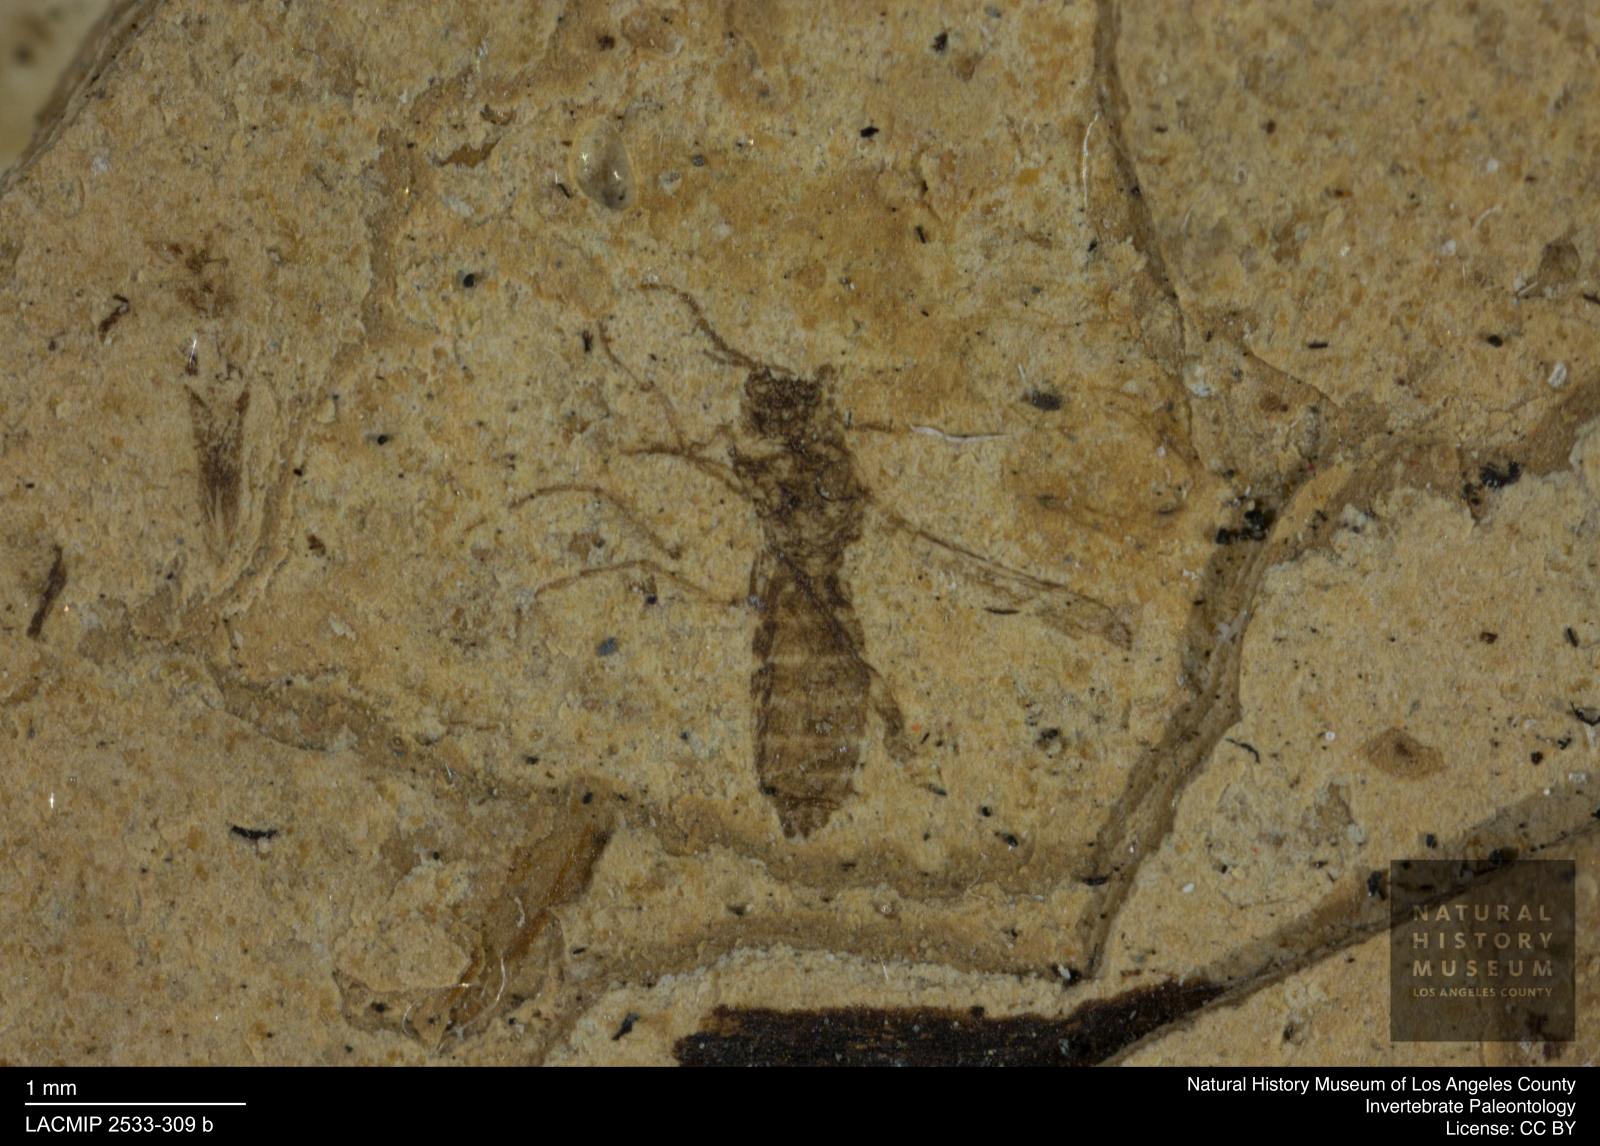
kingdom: Animalia
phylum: Arthropoda
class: Insecta
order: Diptera
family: Ceratopogonidae
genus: Atrichopogon
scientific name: Atrichopogon brunnescens
